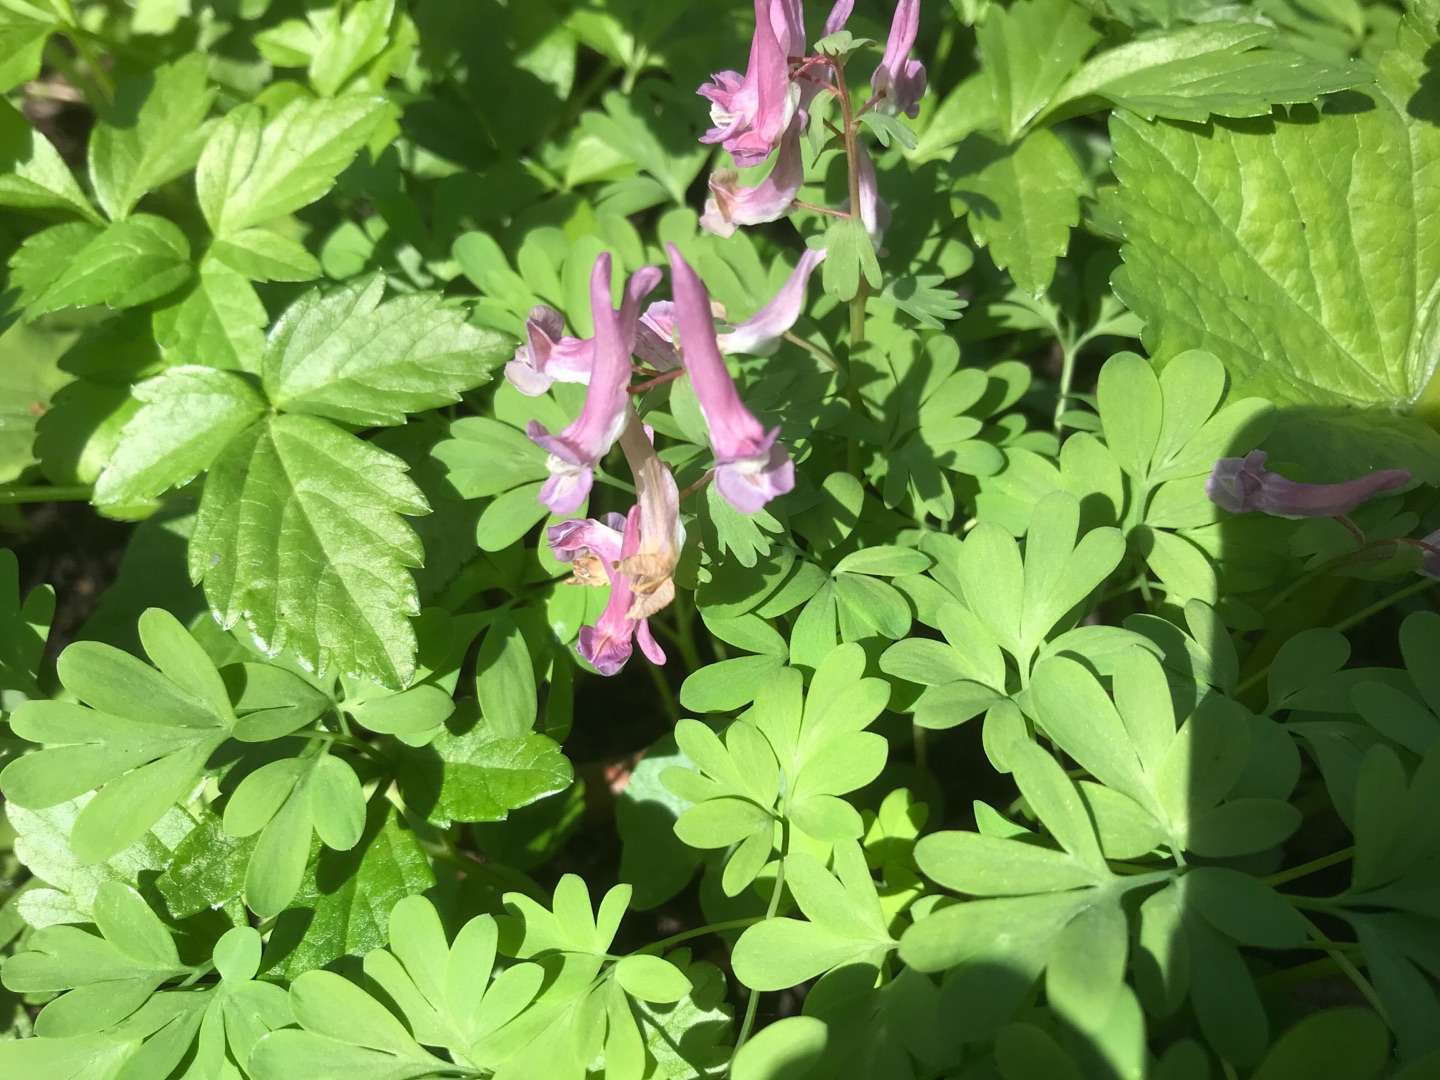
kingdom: Plantae
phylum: Tracheophyta
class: Magnoliopsida
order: Ranunculales
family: Papaveraceae
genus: Corydalis
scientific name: Corydalis solida
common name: Langstilket lærkespore
